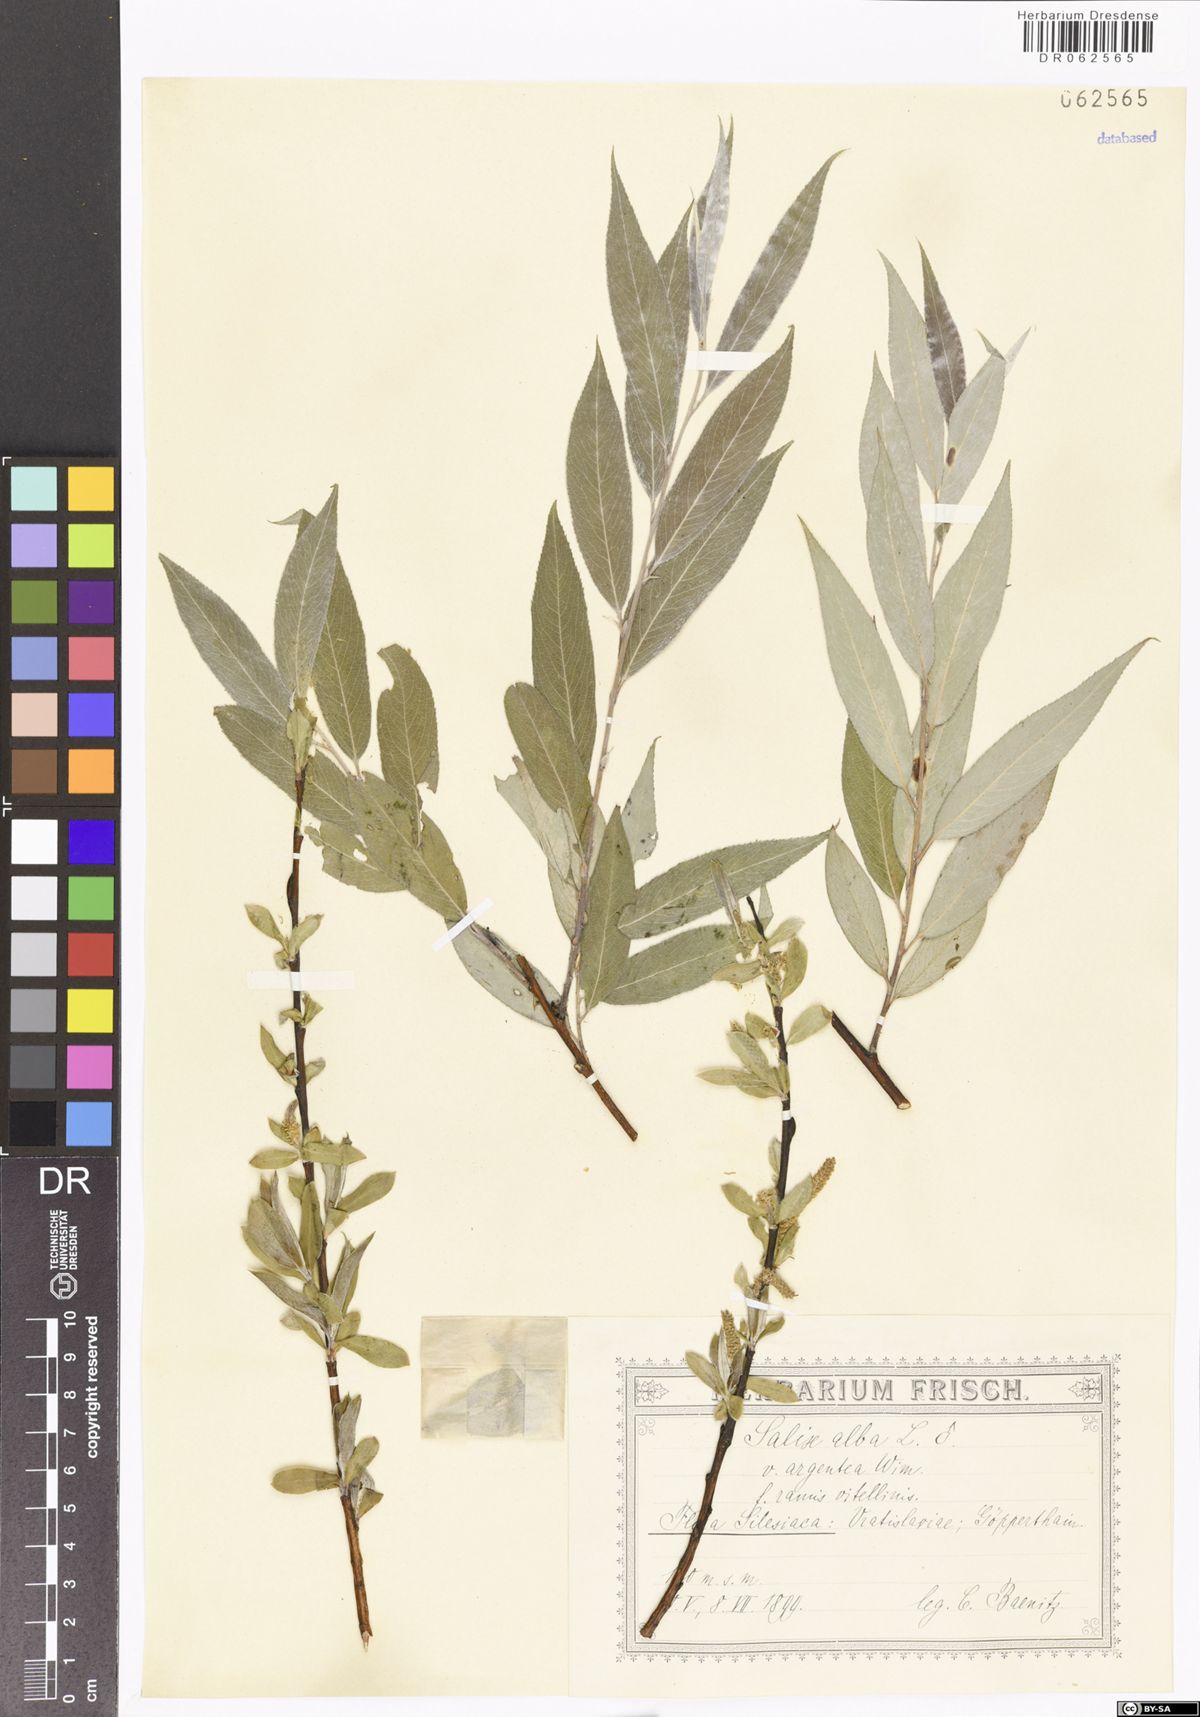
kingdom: Plantae
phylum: Tracheophyta
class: Magnoliopsida
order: Malpighiales
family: Salicaceae
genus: Salix
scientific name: Salix alba
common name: White willow
